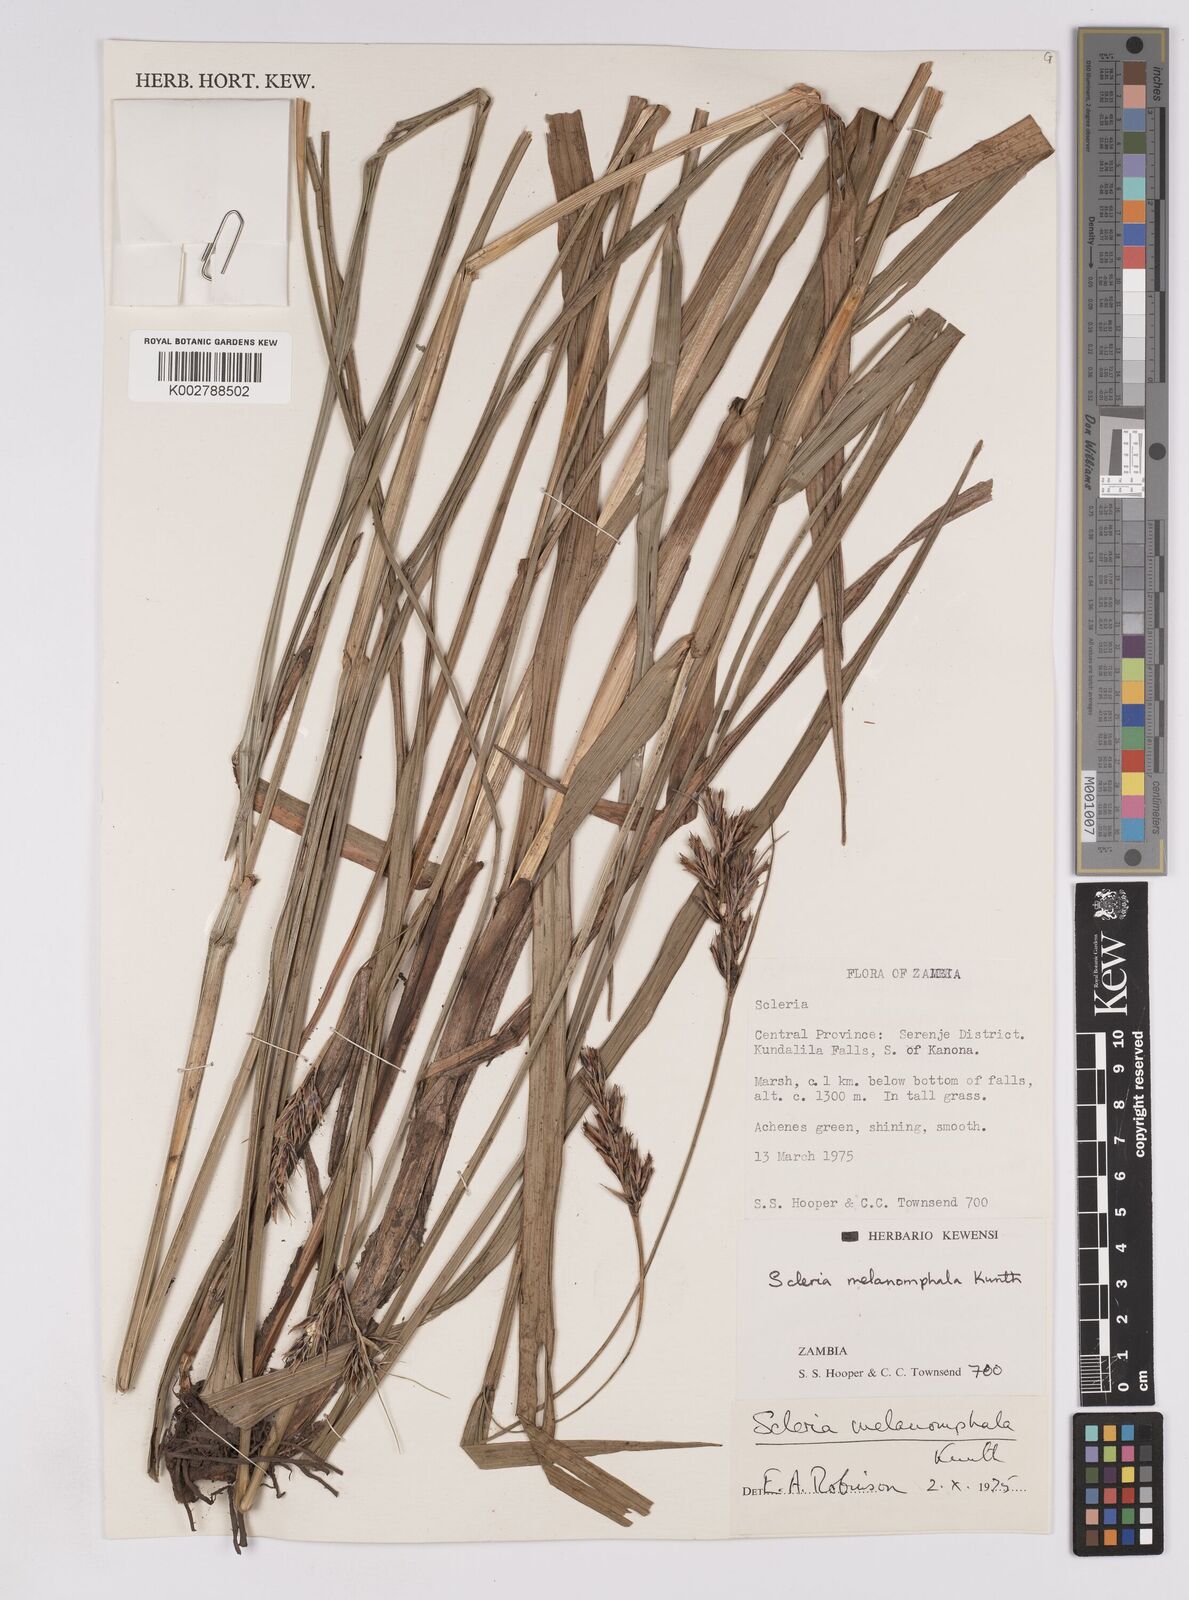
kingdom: Plantae
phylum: Tracheophyta
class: Liliopsida
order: Poales
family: Cyperaceae
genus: Scleria
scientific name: Scleria melanomphala
